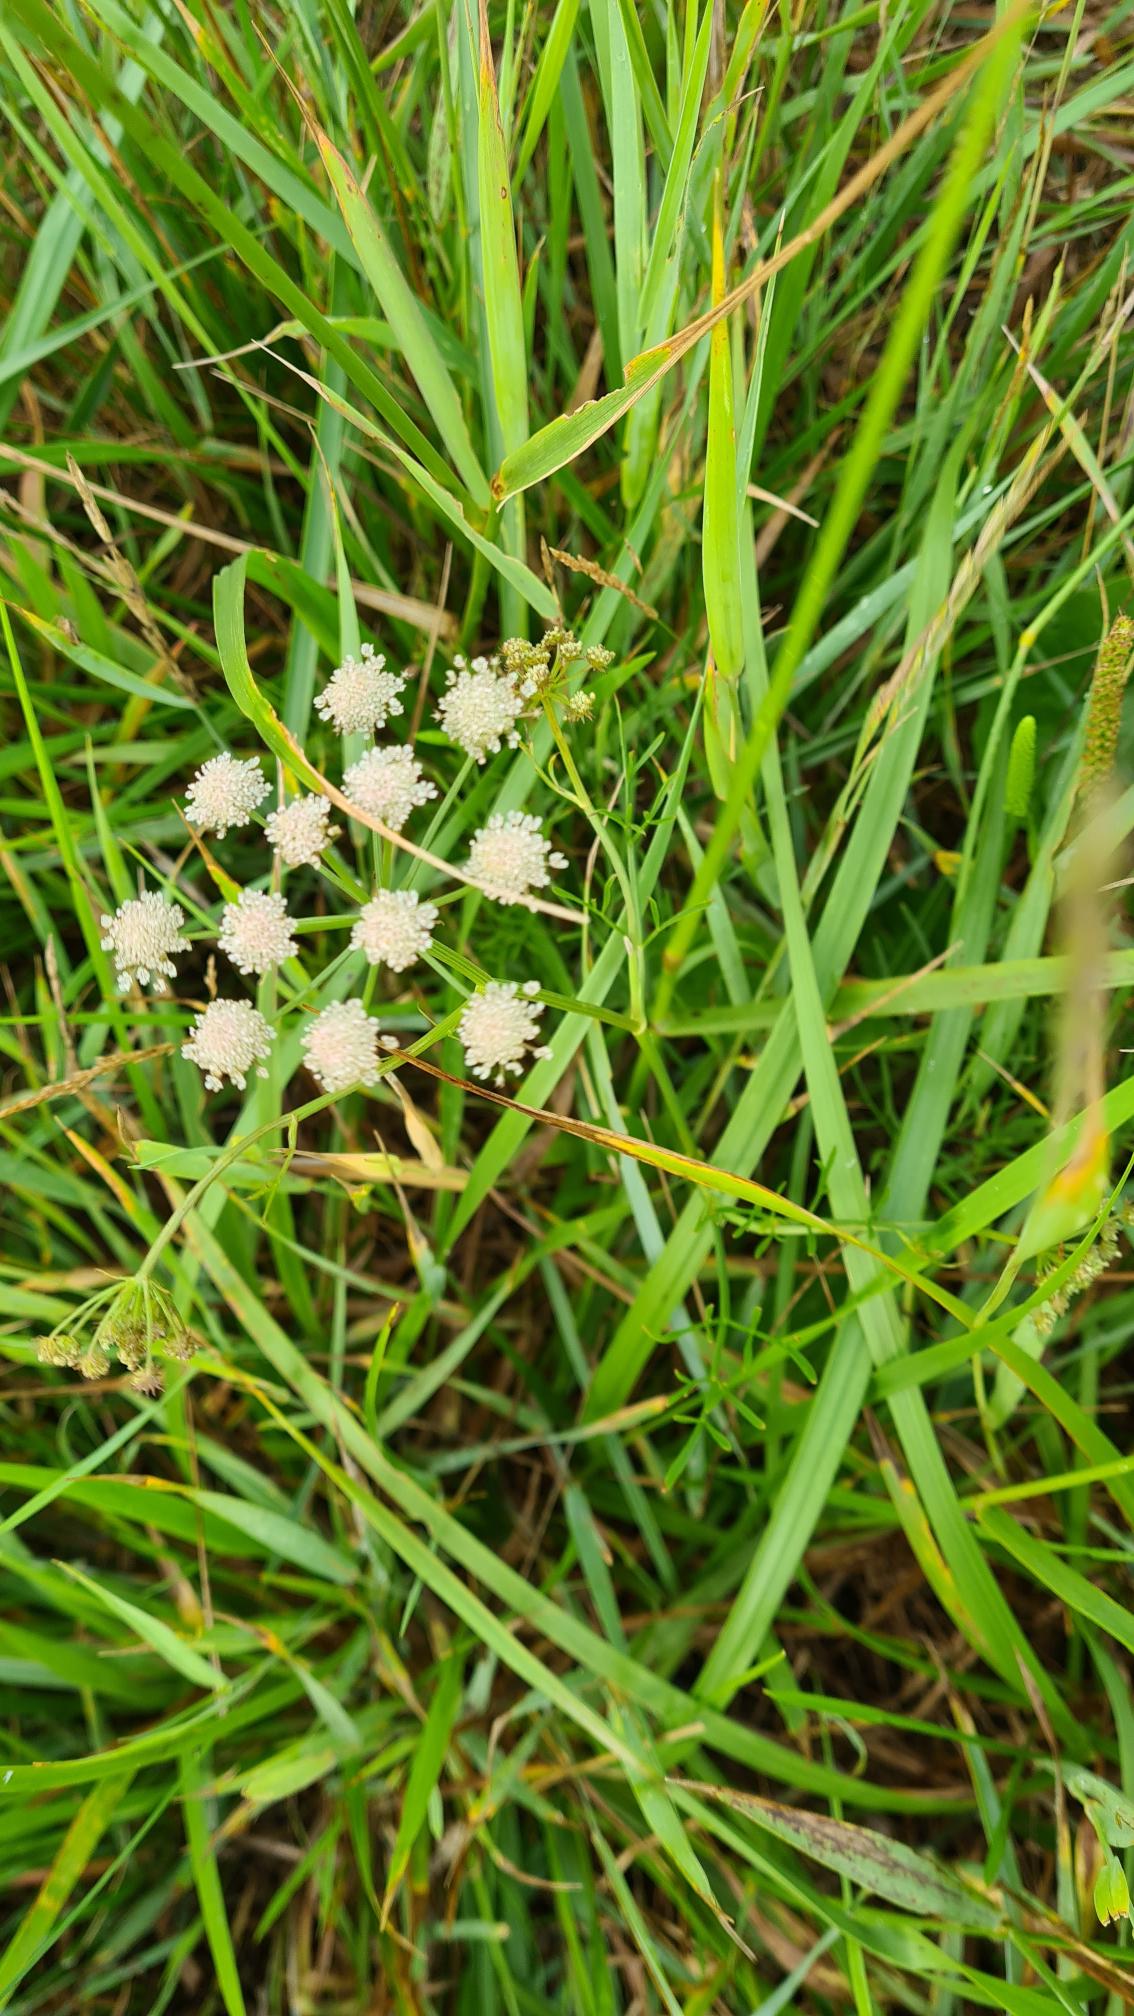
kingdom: Plantae
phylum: Tracheophyta
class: Magnoliopsida
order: Apiales
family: Apiaceae
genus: Oenanthe
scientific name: Oenanthe lachenalii
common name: Eng-klaseskærm
